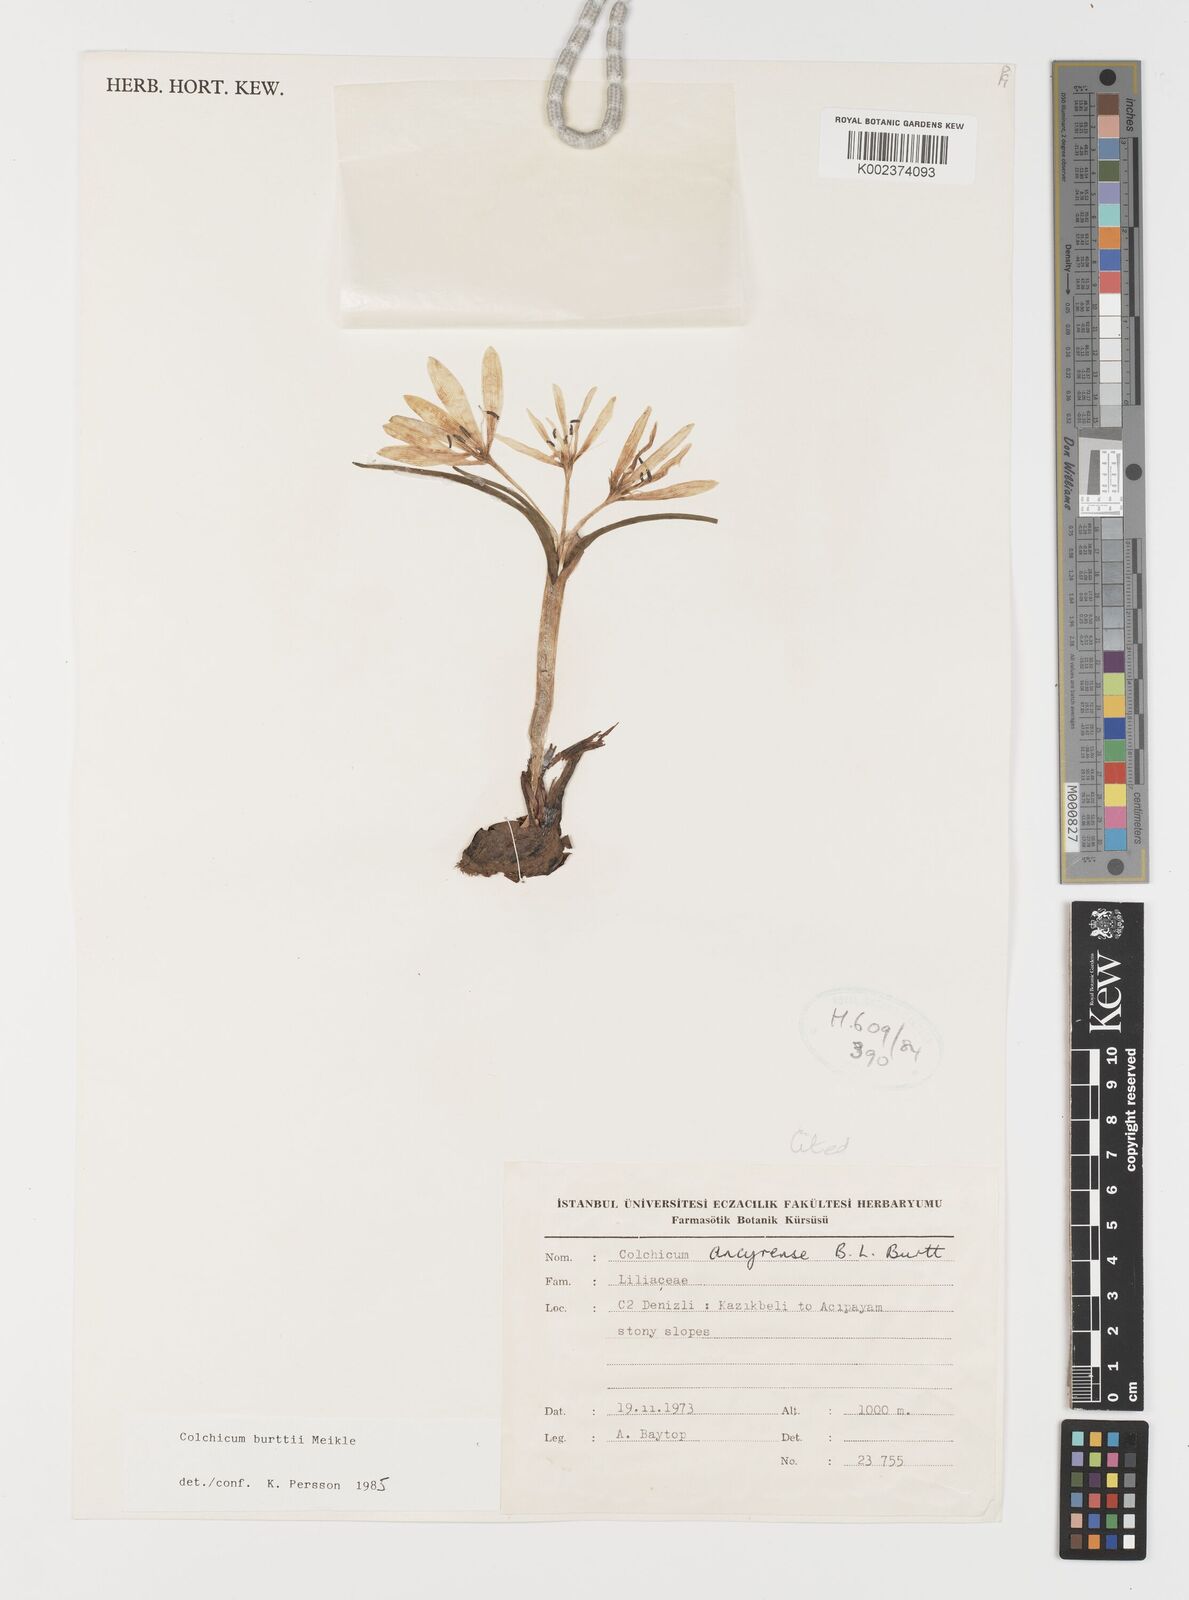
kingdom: Plantae
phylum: Tracheophyta
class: Liliopsida
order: Liliales
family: Colchicaceae
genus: Colchicum
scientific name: Colchicum burttii
